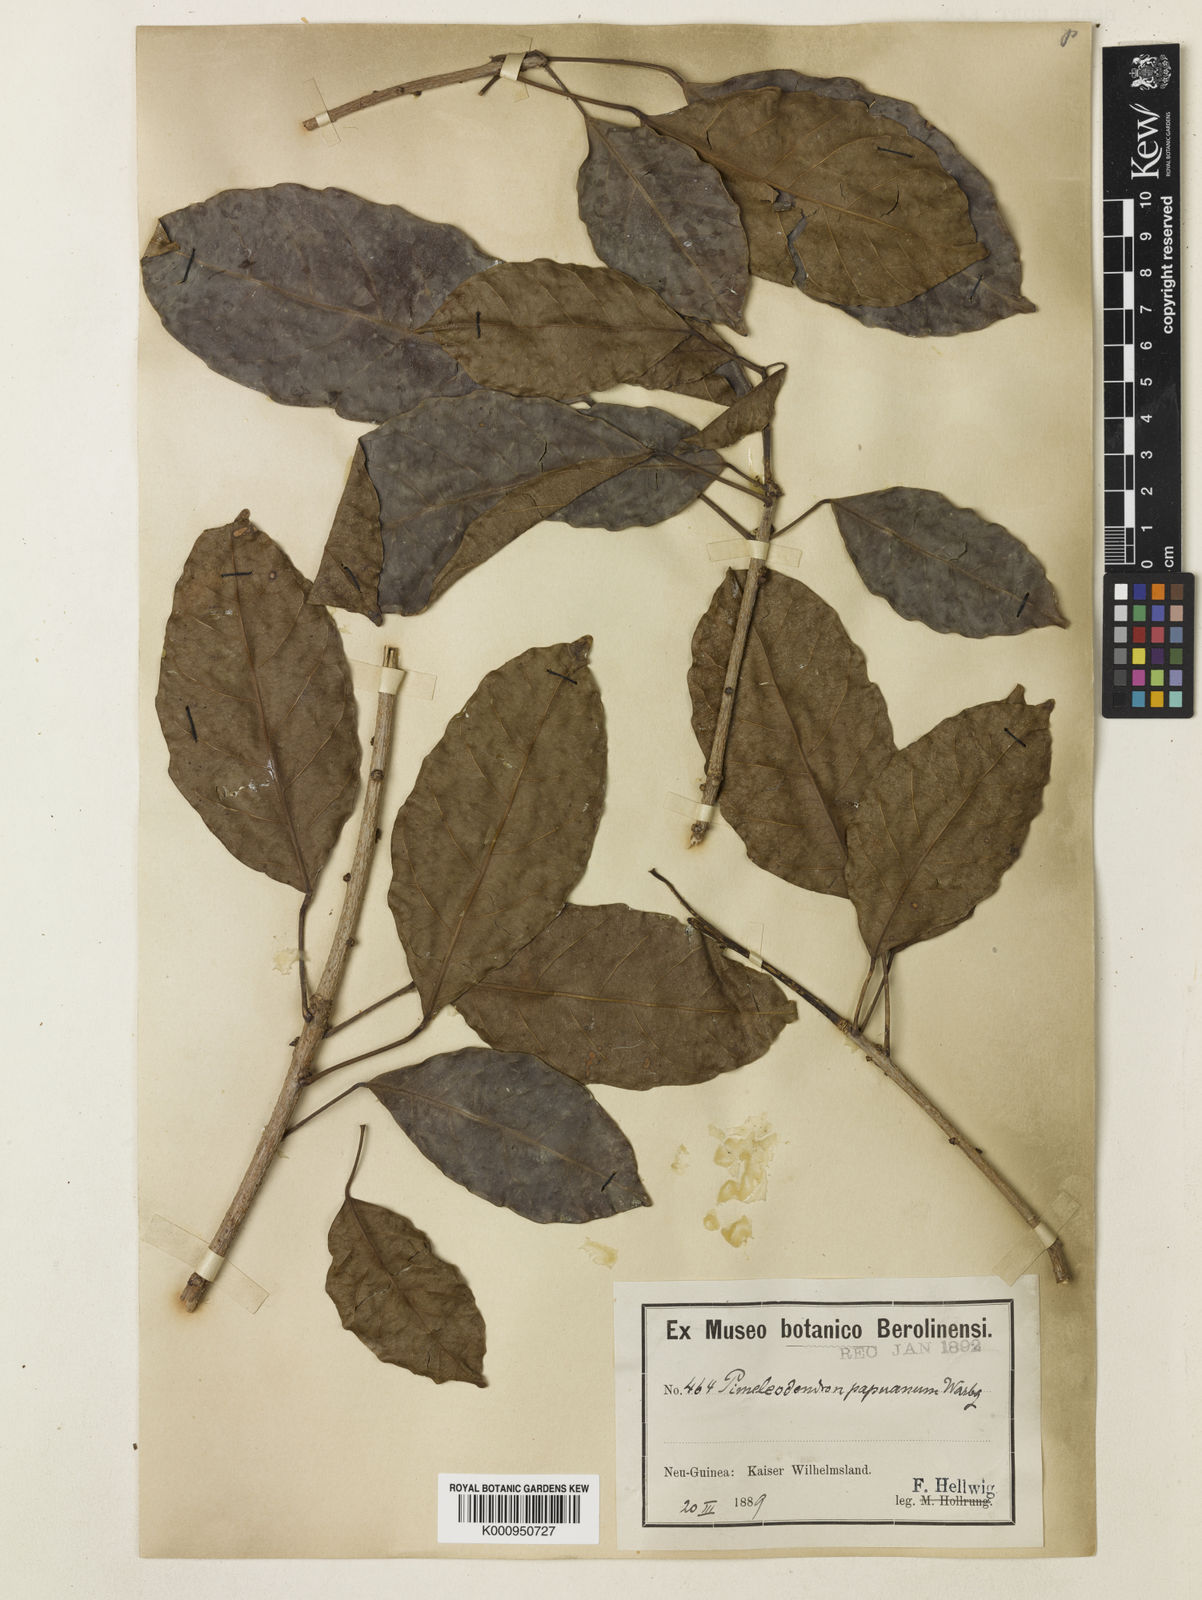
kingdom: Plantae
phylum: Tracheophyta
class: Magnoliopsida
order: Malpighiales
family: Euphorbiaceae
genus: Pimelodendron
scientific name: Pimelodendron amboinicum
